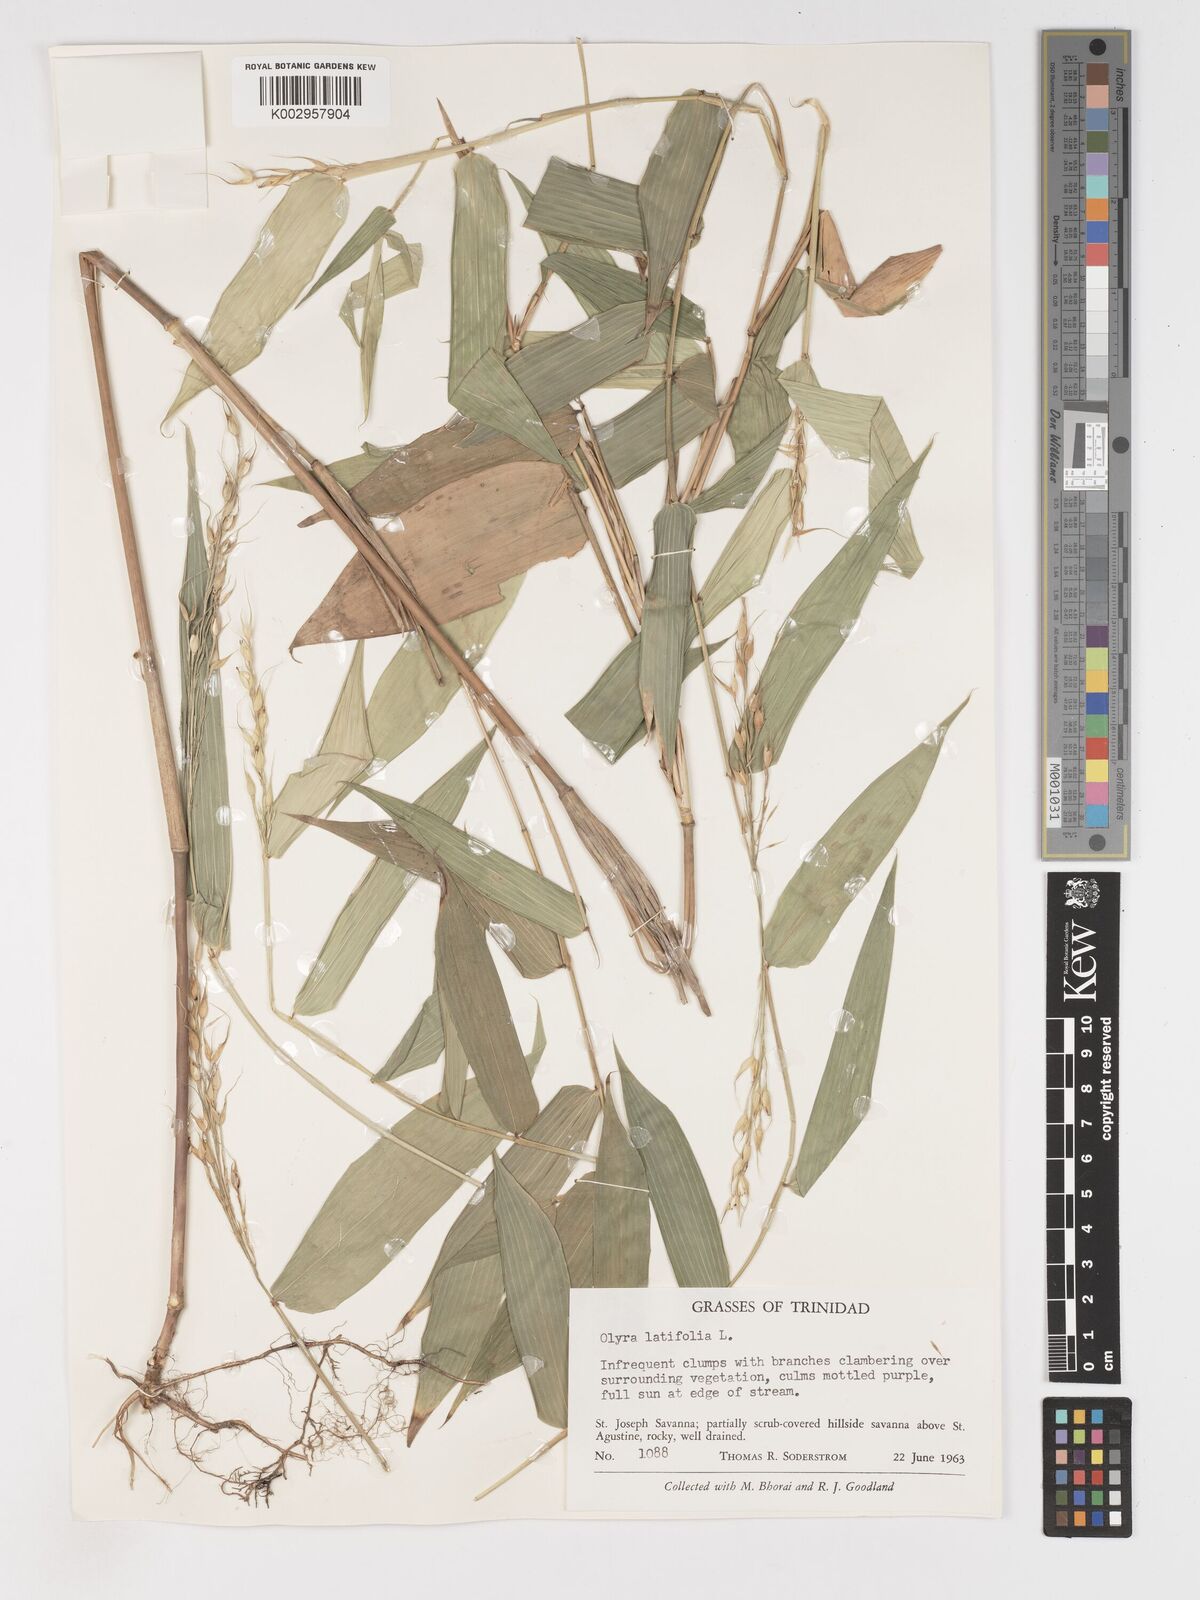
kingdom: Plantae
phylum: Tracheophyta
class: Liliopsida
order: Poales
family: Poaceae
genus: Olyra
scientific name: Olyra latifolia
